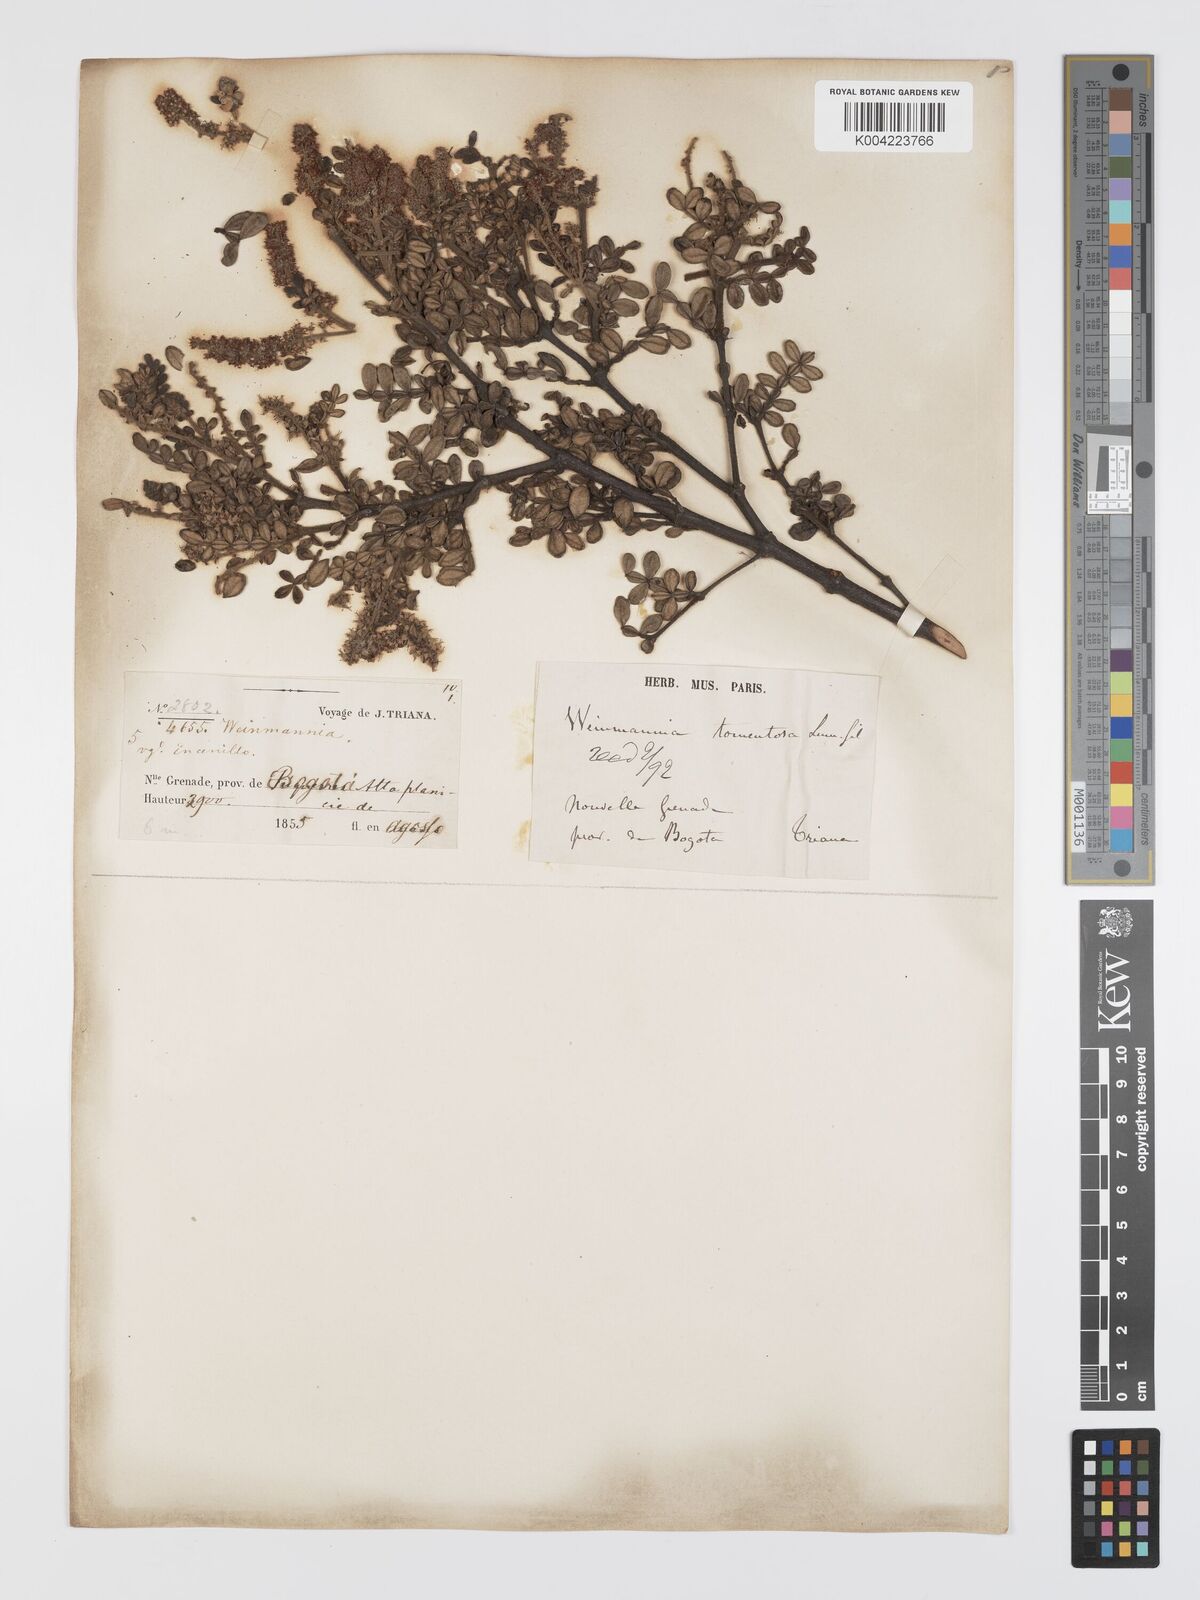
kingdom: Plantae
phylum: Tracheophyta
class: Magnoliopsida
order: Oxalidales
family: Cunoniaceae
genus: Weinmannia
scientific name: Weinmannia tomentosa
